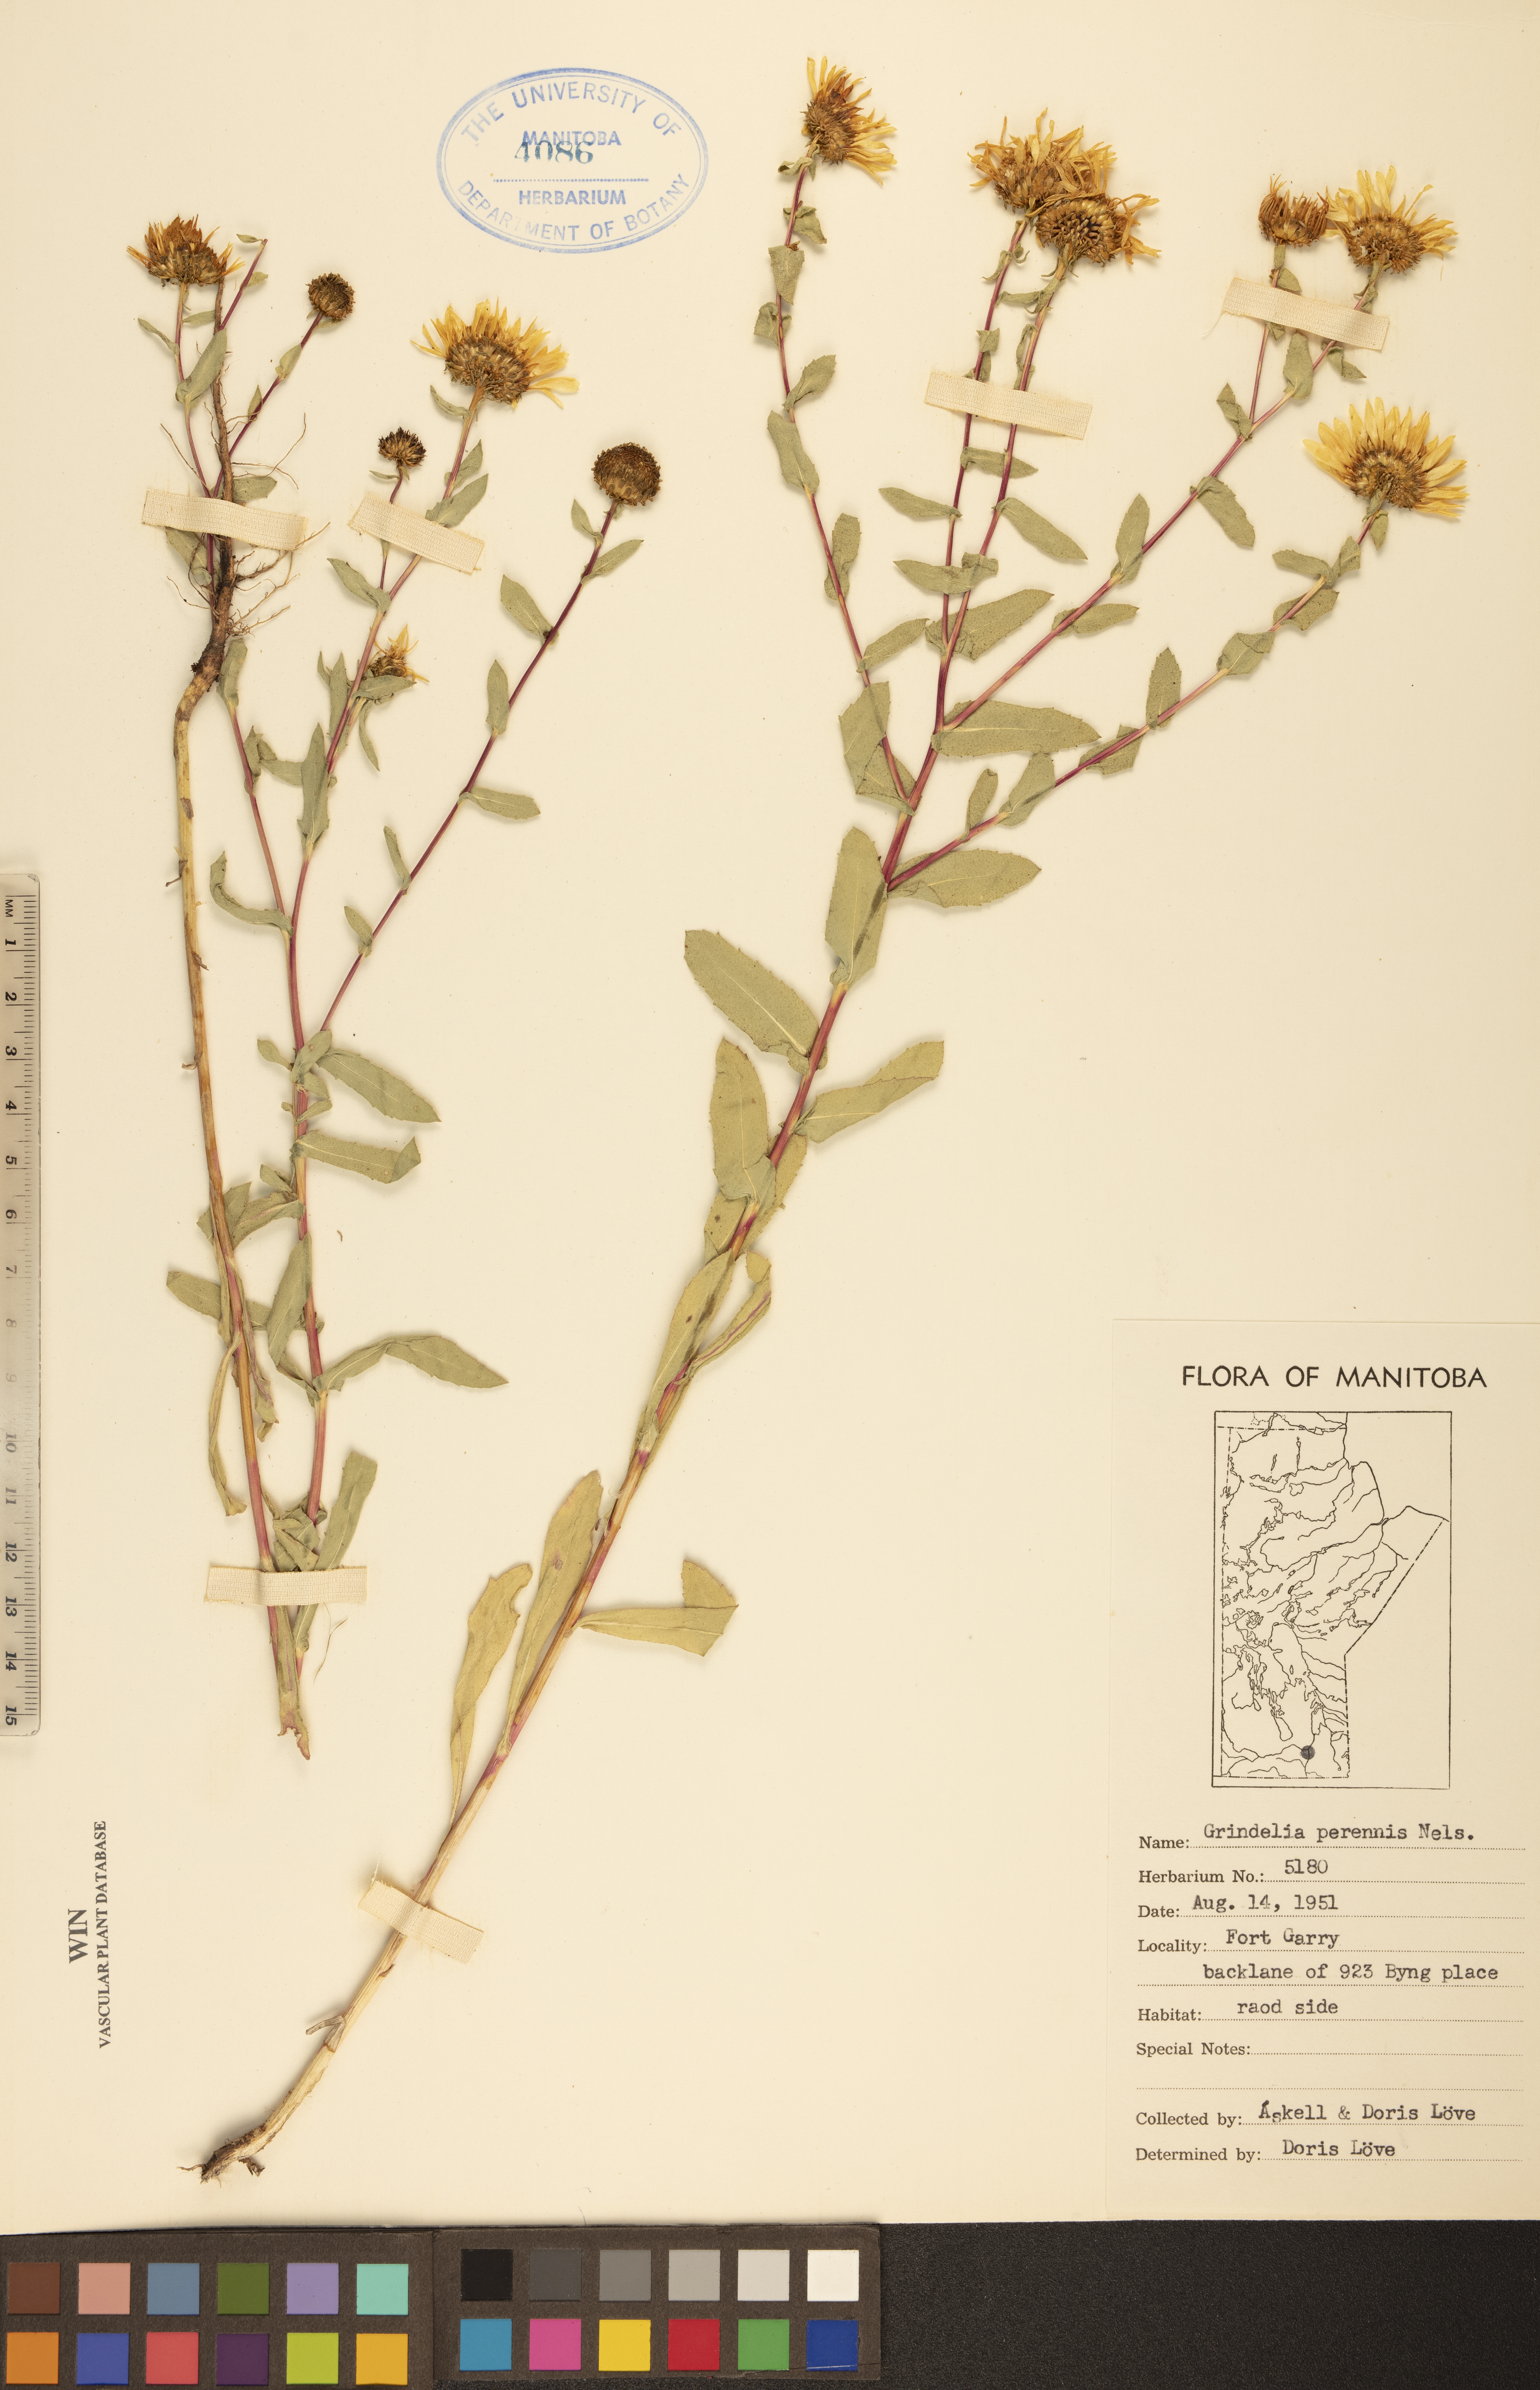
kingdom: Plantae
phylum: Tracheophyta
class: Magnoliopsida
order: Asterales
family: Asteraceae
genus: Grindelia
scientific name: Grindelia hirsutula
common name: Hairy gumweed
